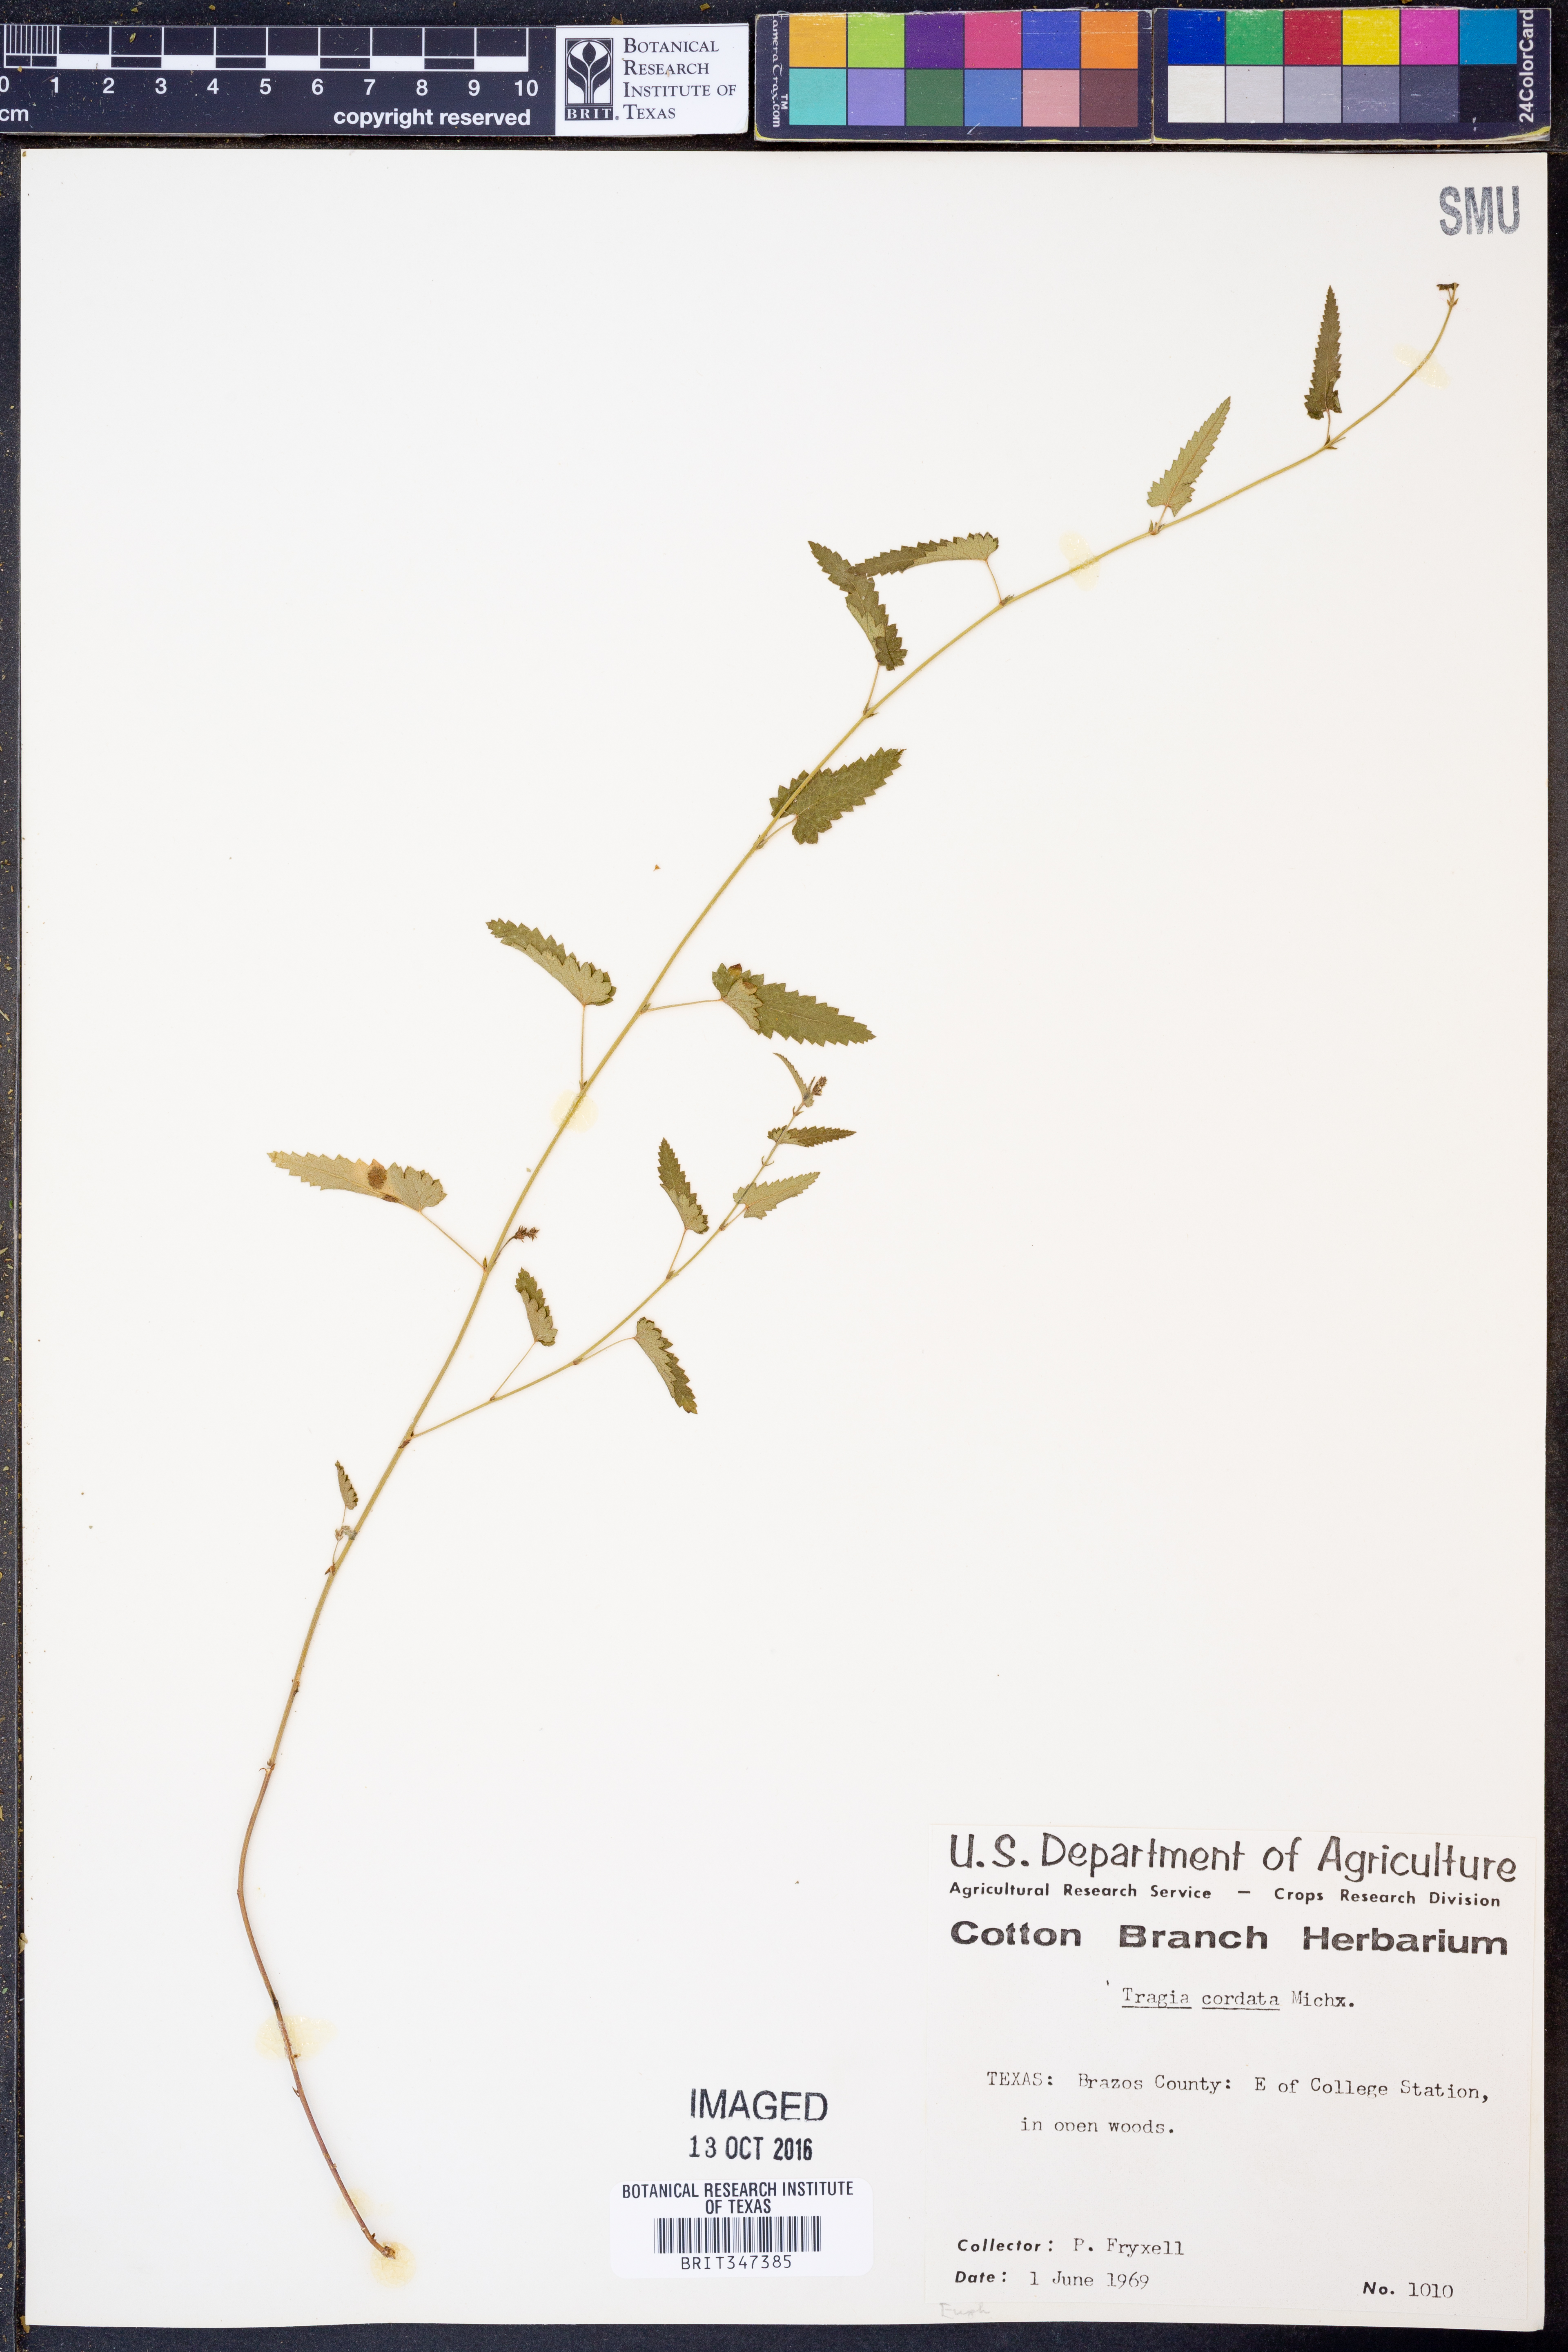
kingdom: Plantae
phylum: Tracheophyta
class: Magnoliopsida
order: Malpighiales
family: Euphorbiaceae
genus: Tragia
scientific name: Tragia cordata
